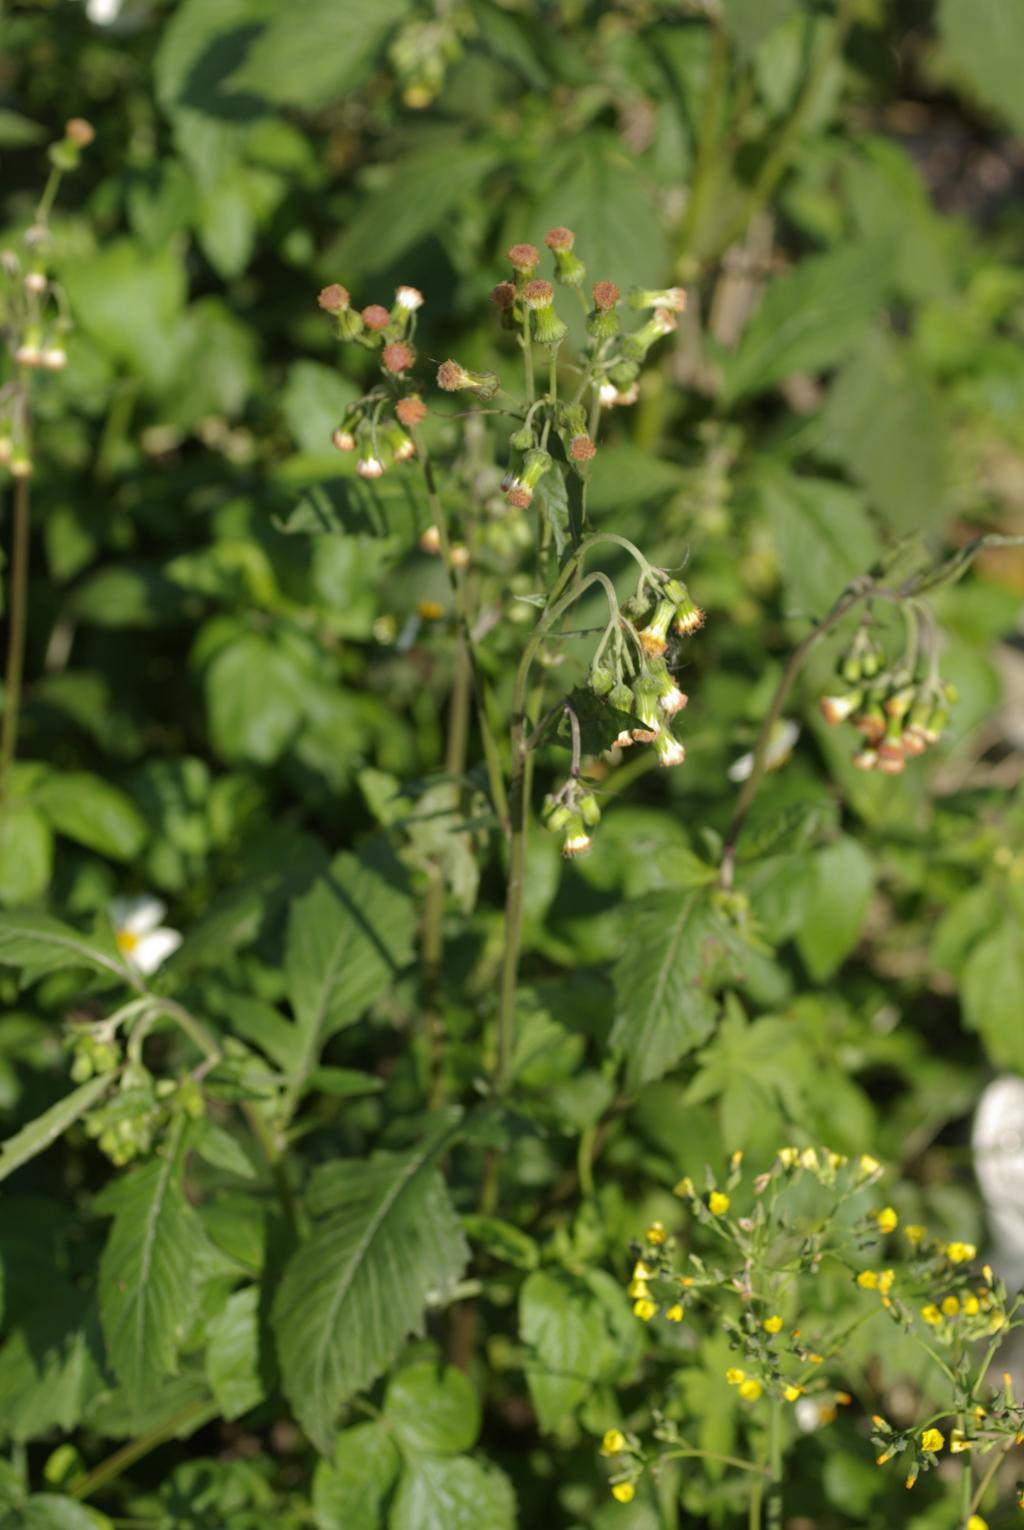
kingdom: Plantae
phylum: Tracheophyta
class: Magnoliopsida
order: Asterales
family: Asteraceae
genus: Crassocephalum
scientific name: Crassocephalum crepidioides
